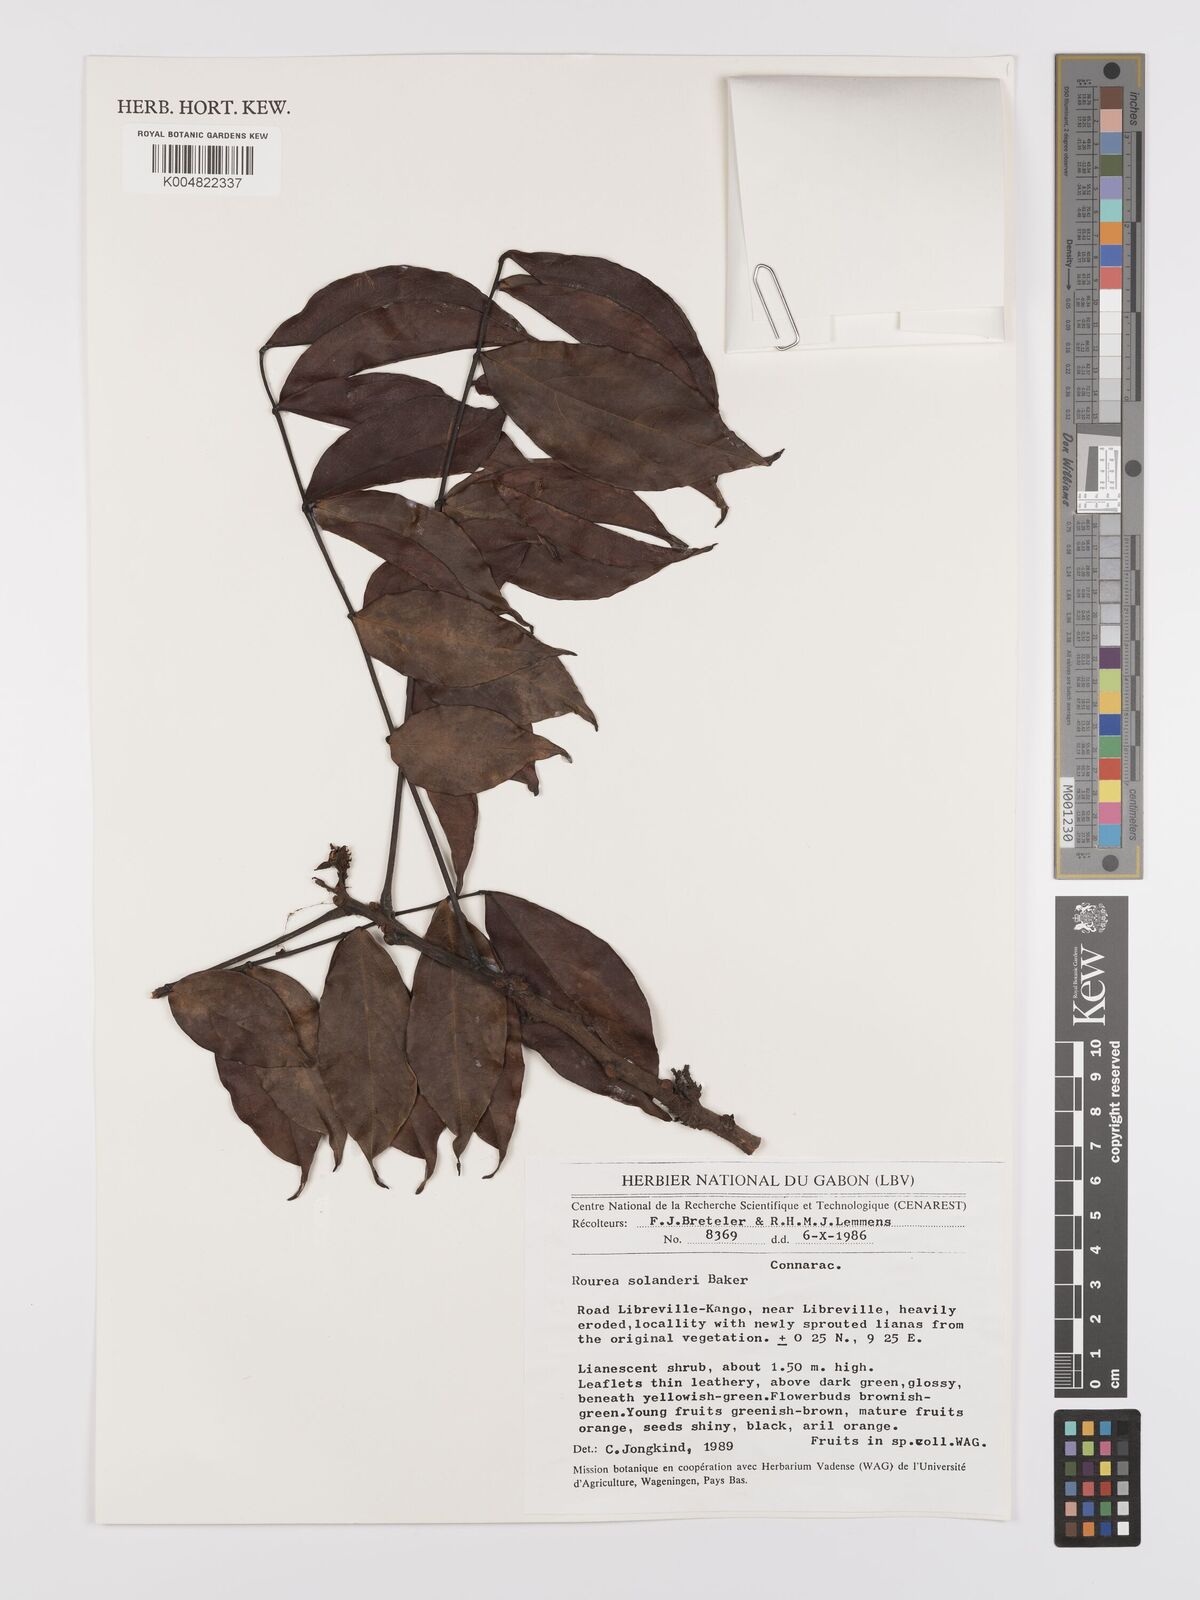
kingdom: Plantae
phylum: Tracheophyta
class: Magnoliopsida
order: Oxalidales
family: Connaraceae
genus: Rourea
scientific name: Rourea solanderi
